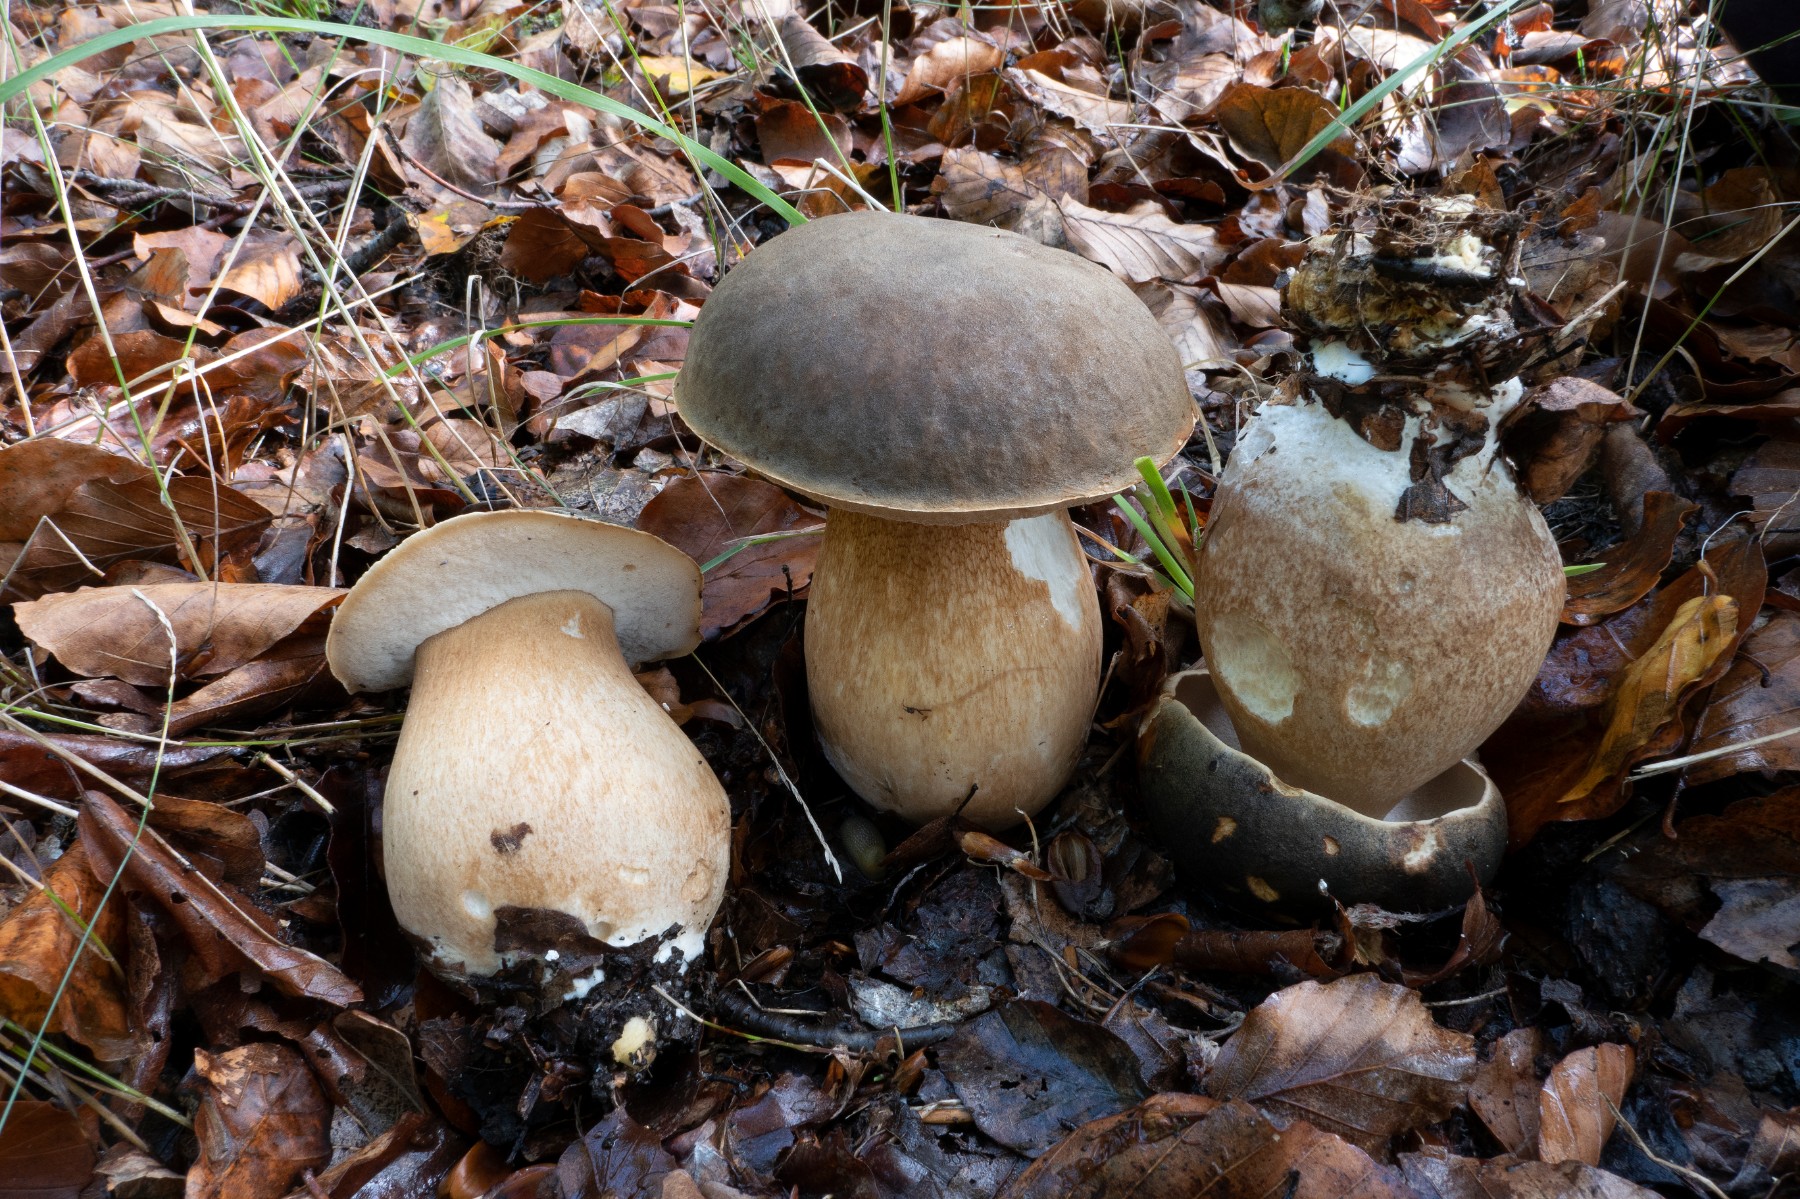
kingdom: Fungi
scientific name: Fungi
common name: bronze-rørhat
